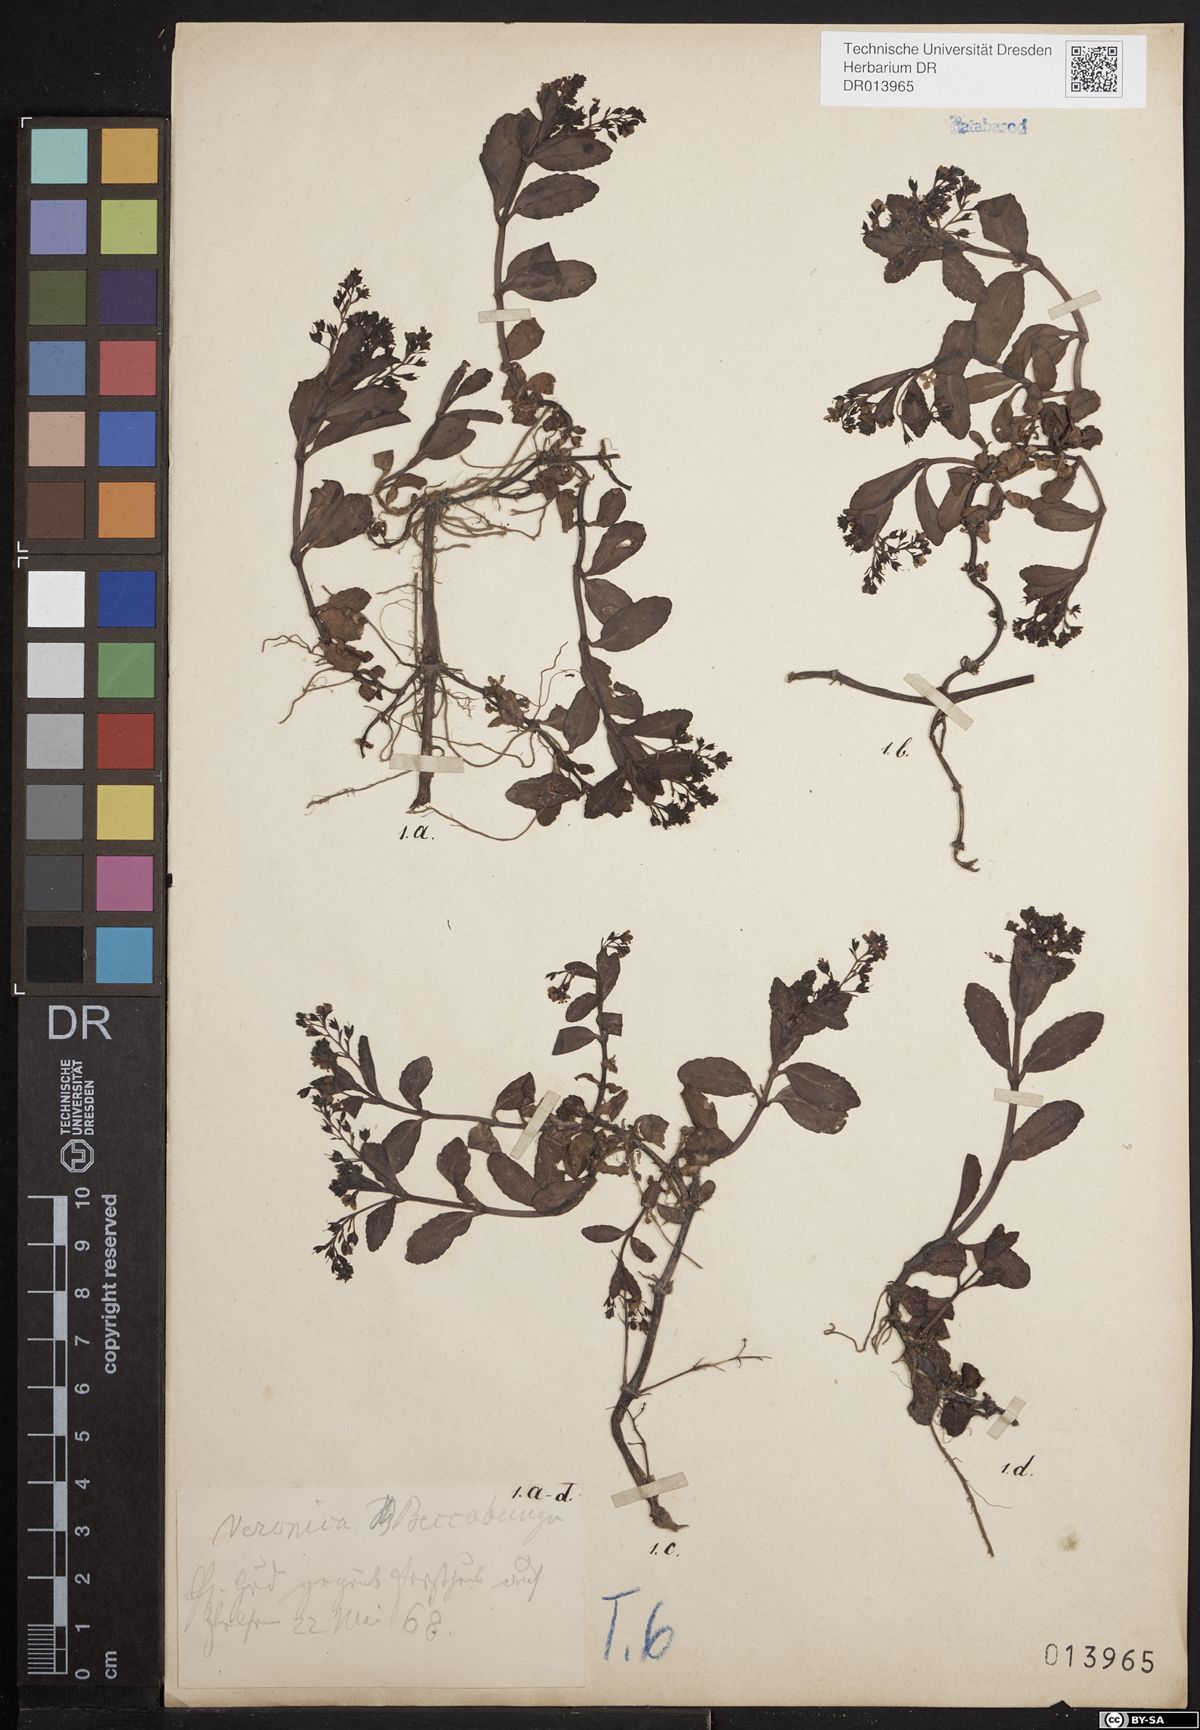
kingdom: Plantae
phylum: Tracheophyta
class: Magnoliopsida
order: Lamiales
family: Plantaginaceae
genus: Veronica
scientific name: Veronica beccabunga
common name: Brooklime
